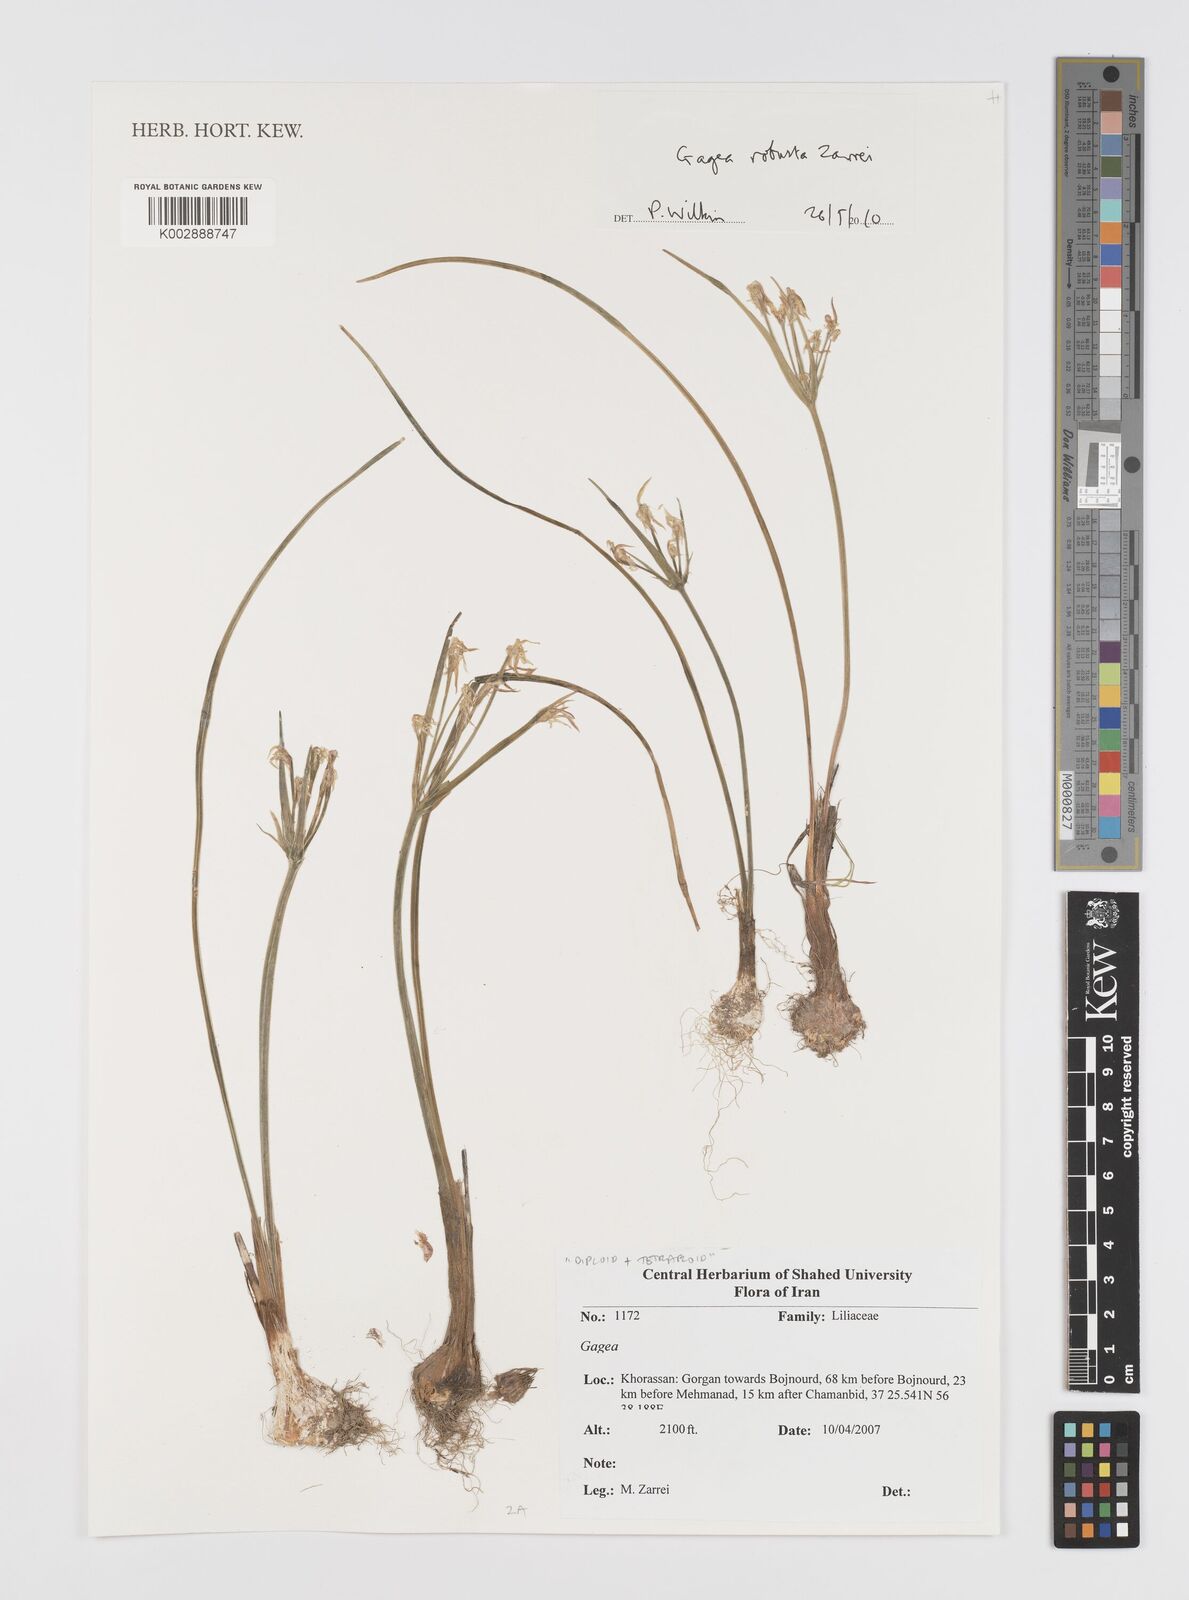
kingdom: Plantae
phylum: Tracheophyta
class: Liliopsida
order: Liliales
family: Liliaceae
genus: Gagea
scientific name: Gagea robusta
